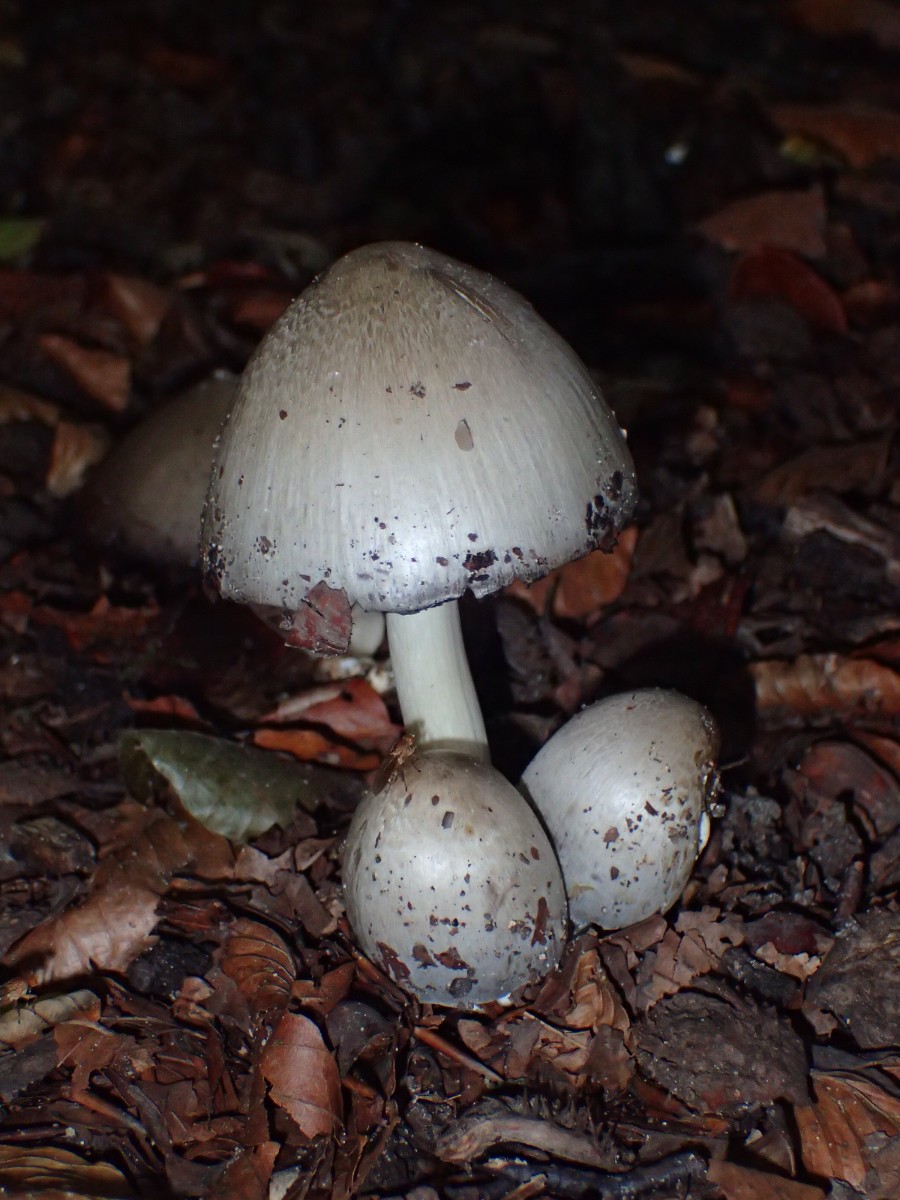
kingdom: Fungi
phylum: Basidiomycota
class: Agaricomycetes
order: Agaricales
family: Psathyrellaceae
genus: Coprinopsis
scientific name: Coprinopsis atramentaria
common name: almindelig blækhat
